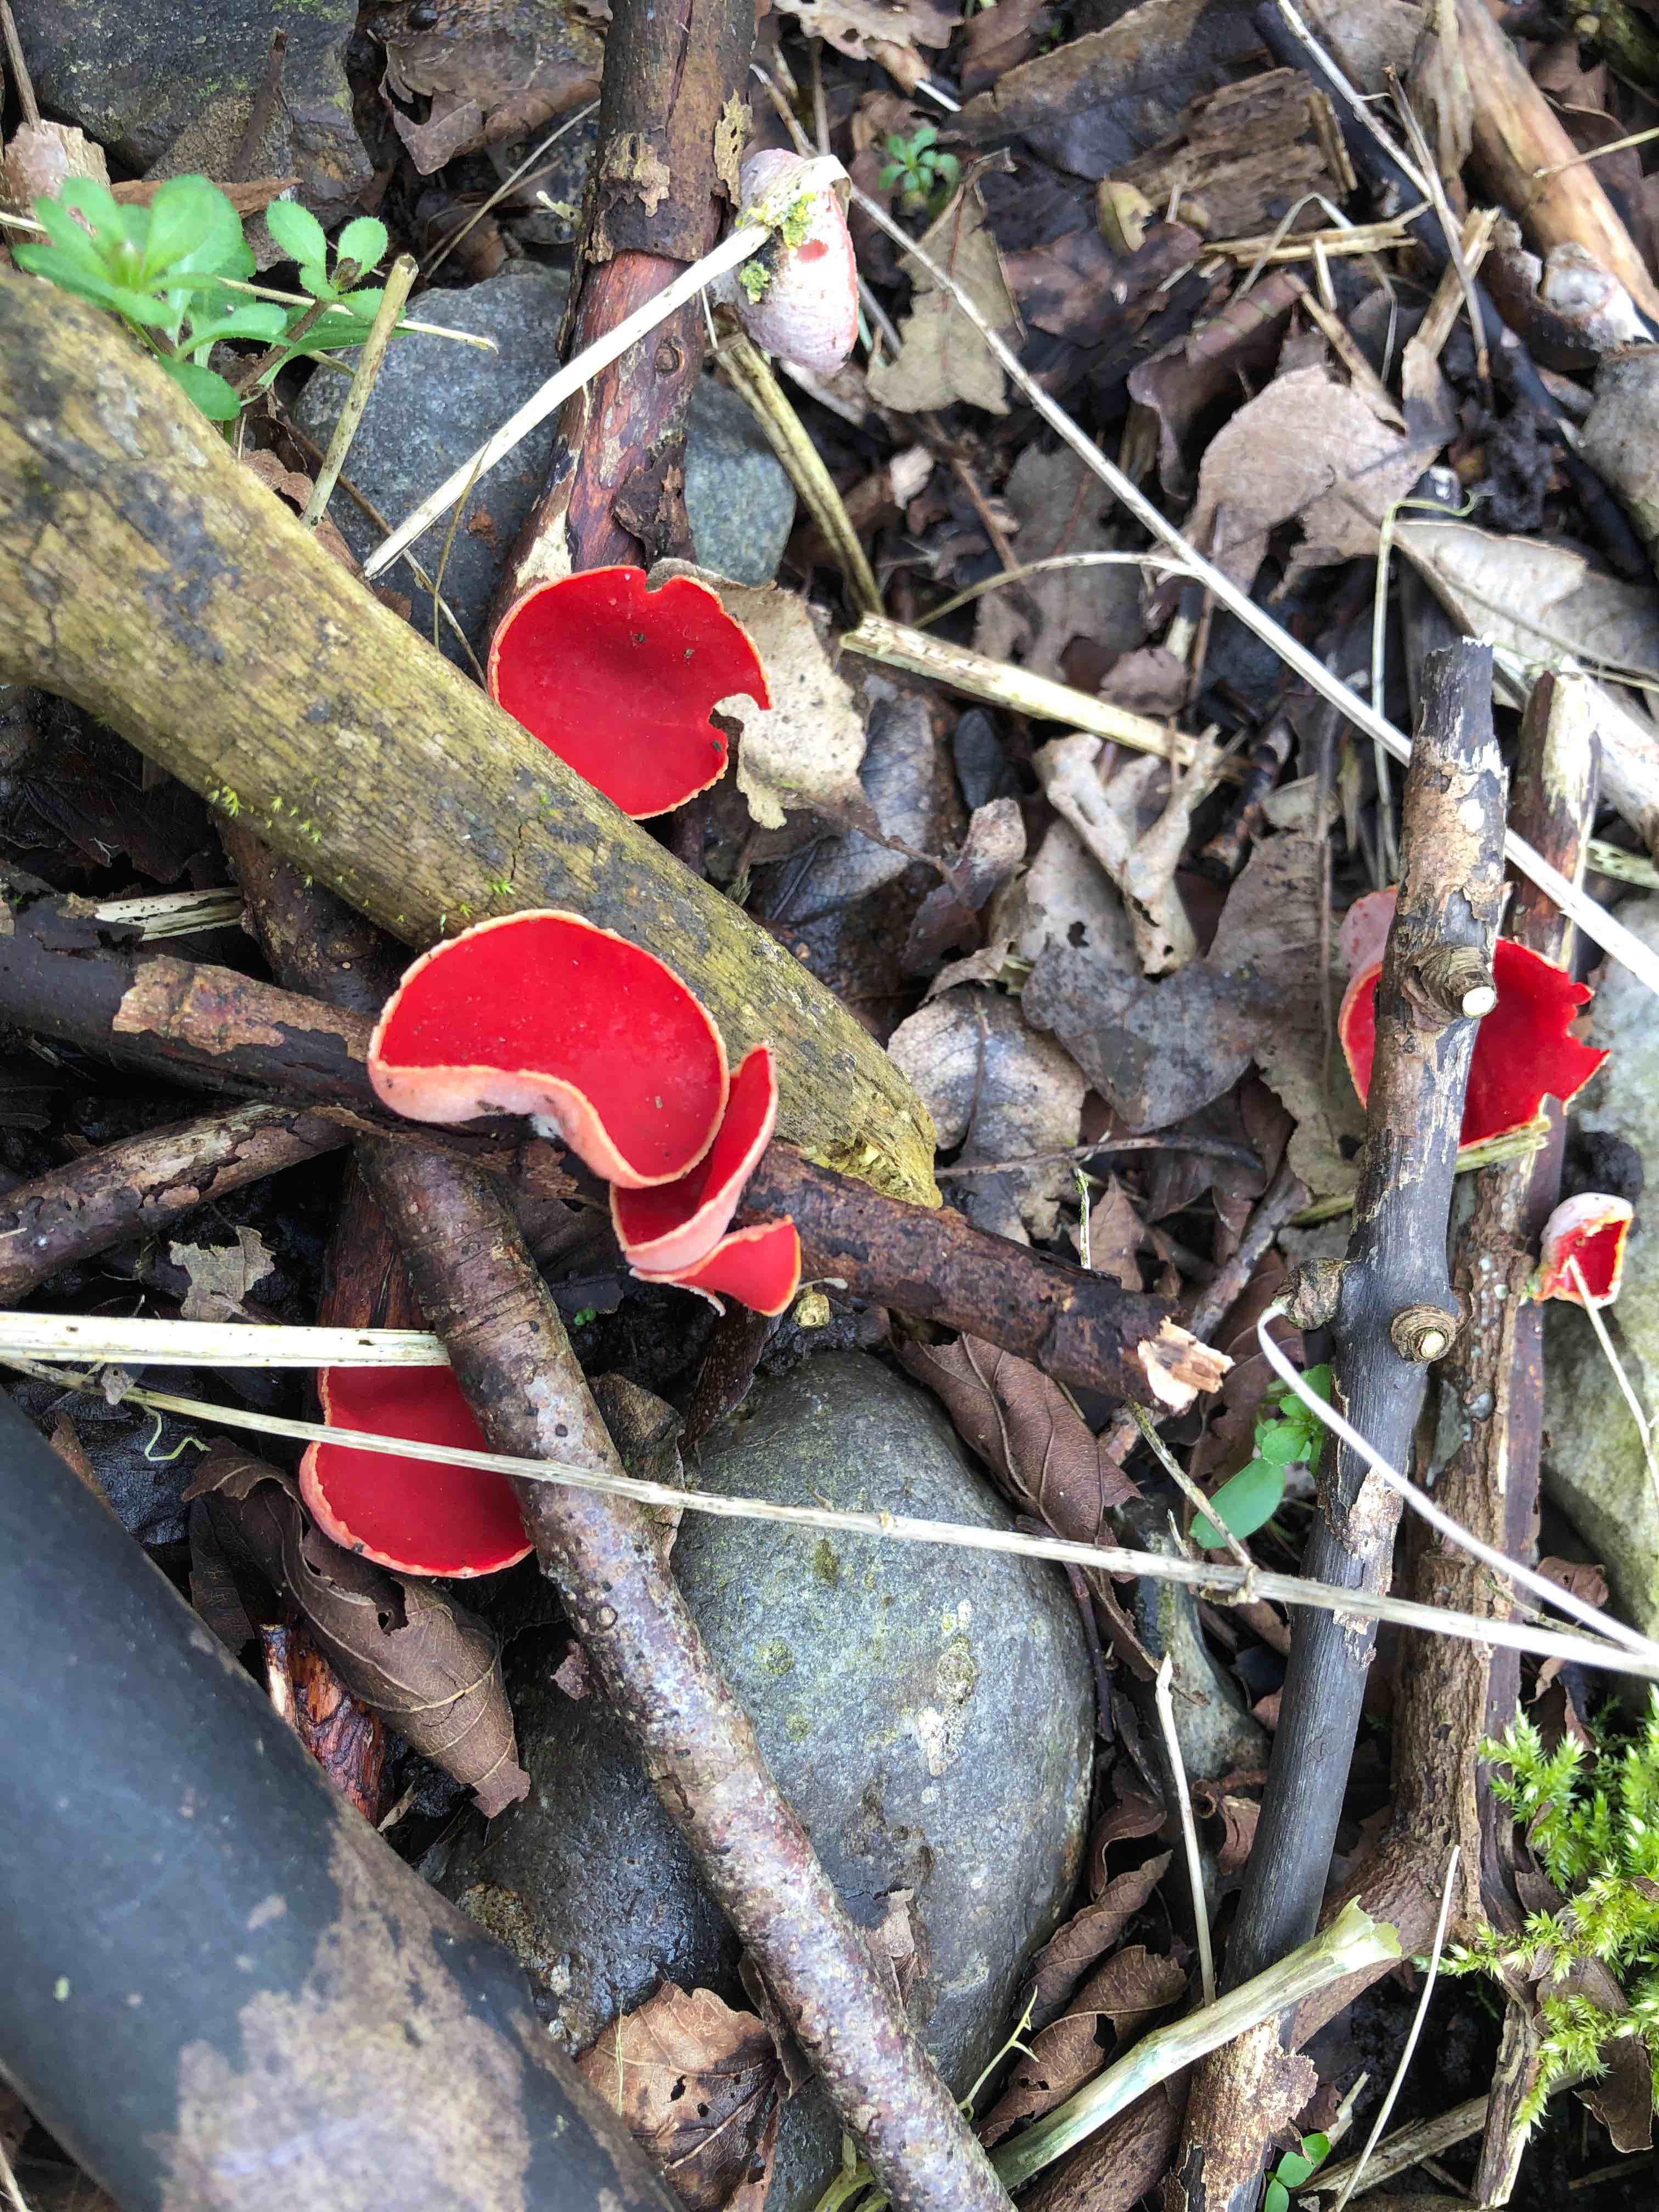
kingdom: Fungi
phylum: Ascomycota
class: Pezizomycetes
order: Pezizales
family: Sarcoscyphaceae
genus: Sarcoscypha
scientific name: Sarcoscypha austriaca
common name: krølhåret pragtbæger
